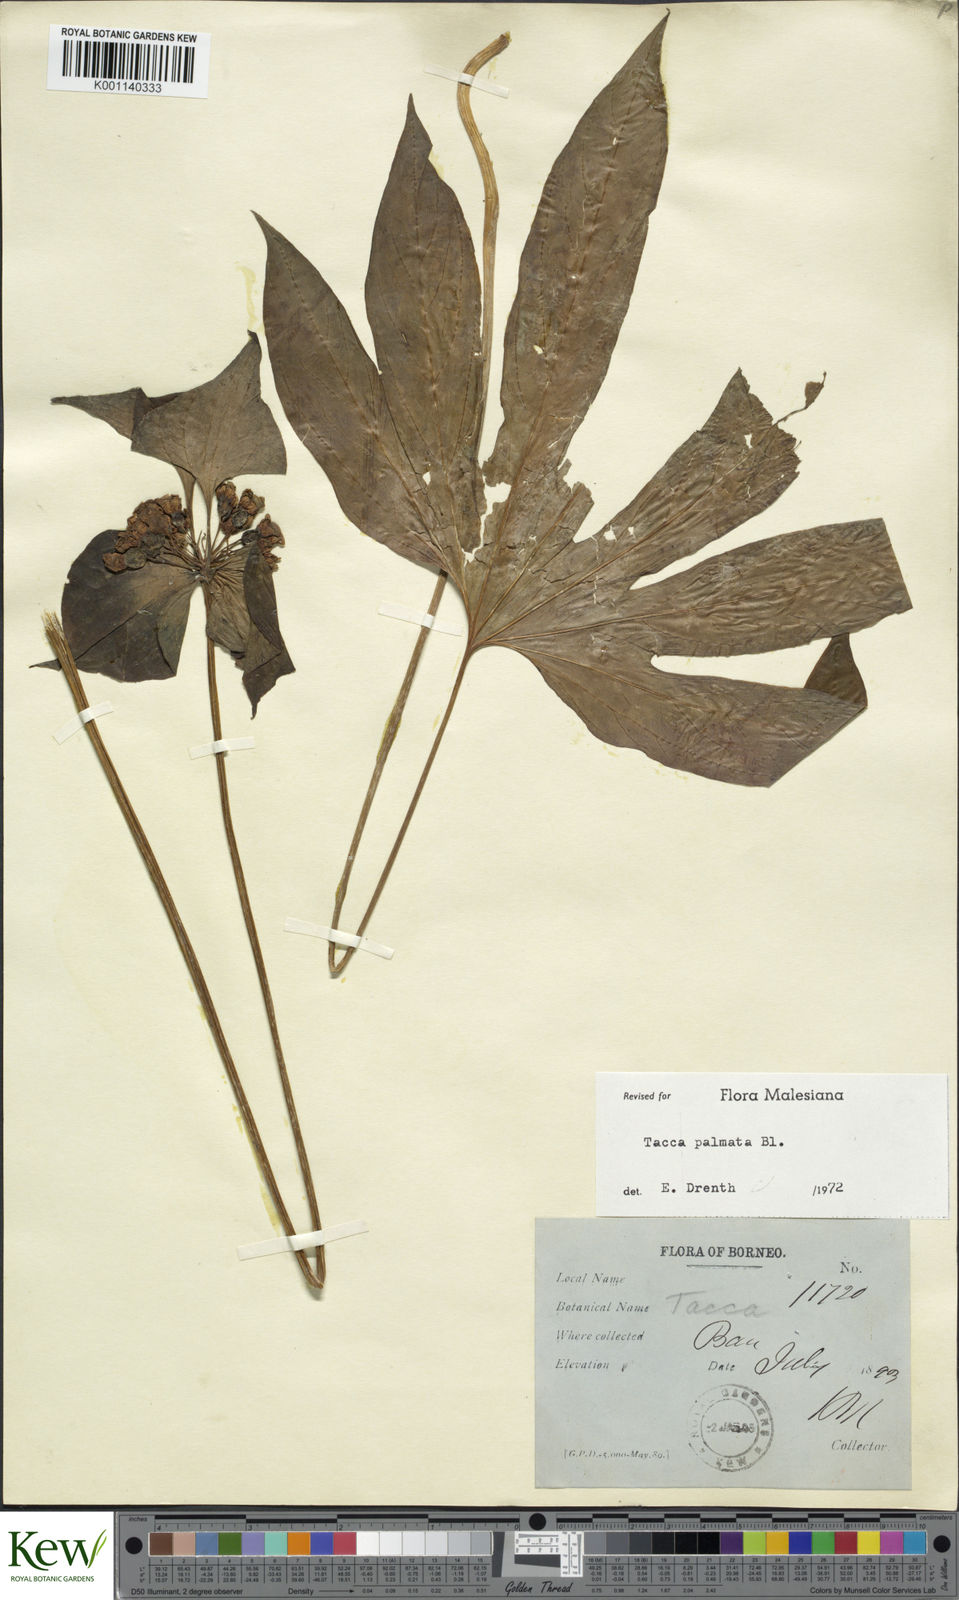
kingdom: Plantae
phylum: Tracheophyta
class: Liliopsida
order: Dioscoreales
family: Dioscoreaceae
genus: Tacca
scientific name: Tacca palmata
